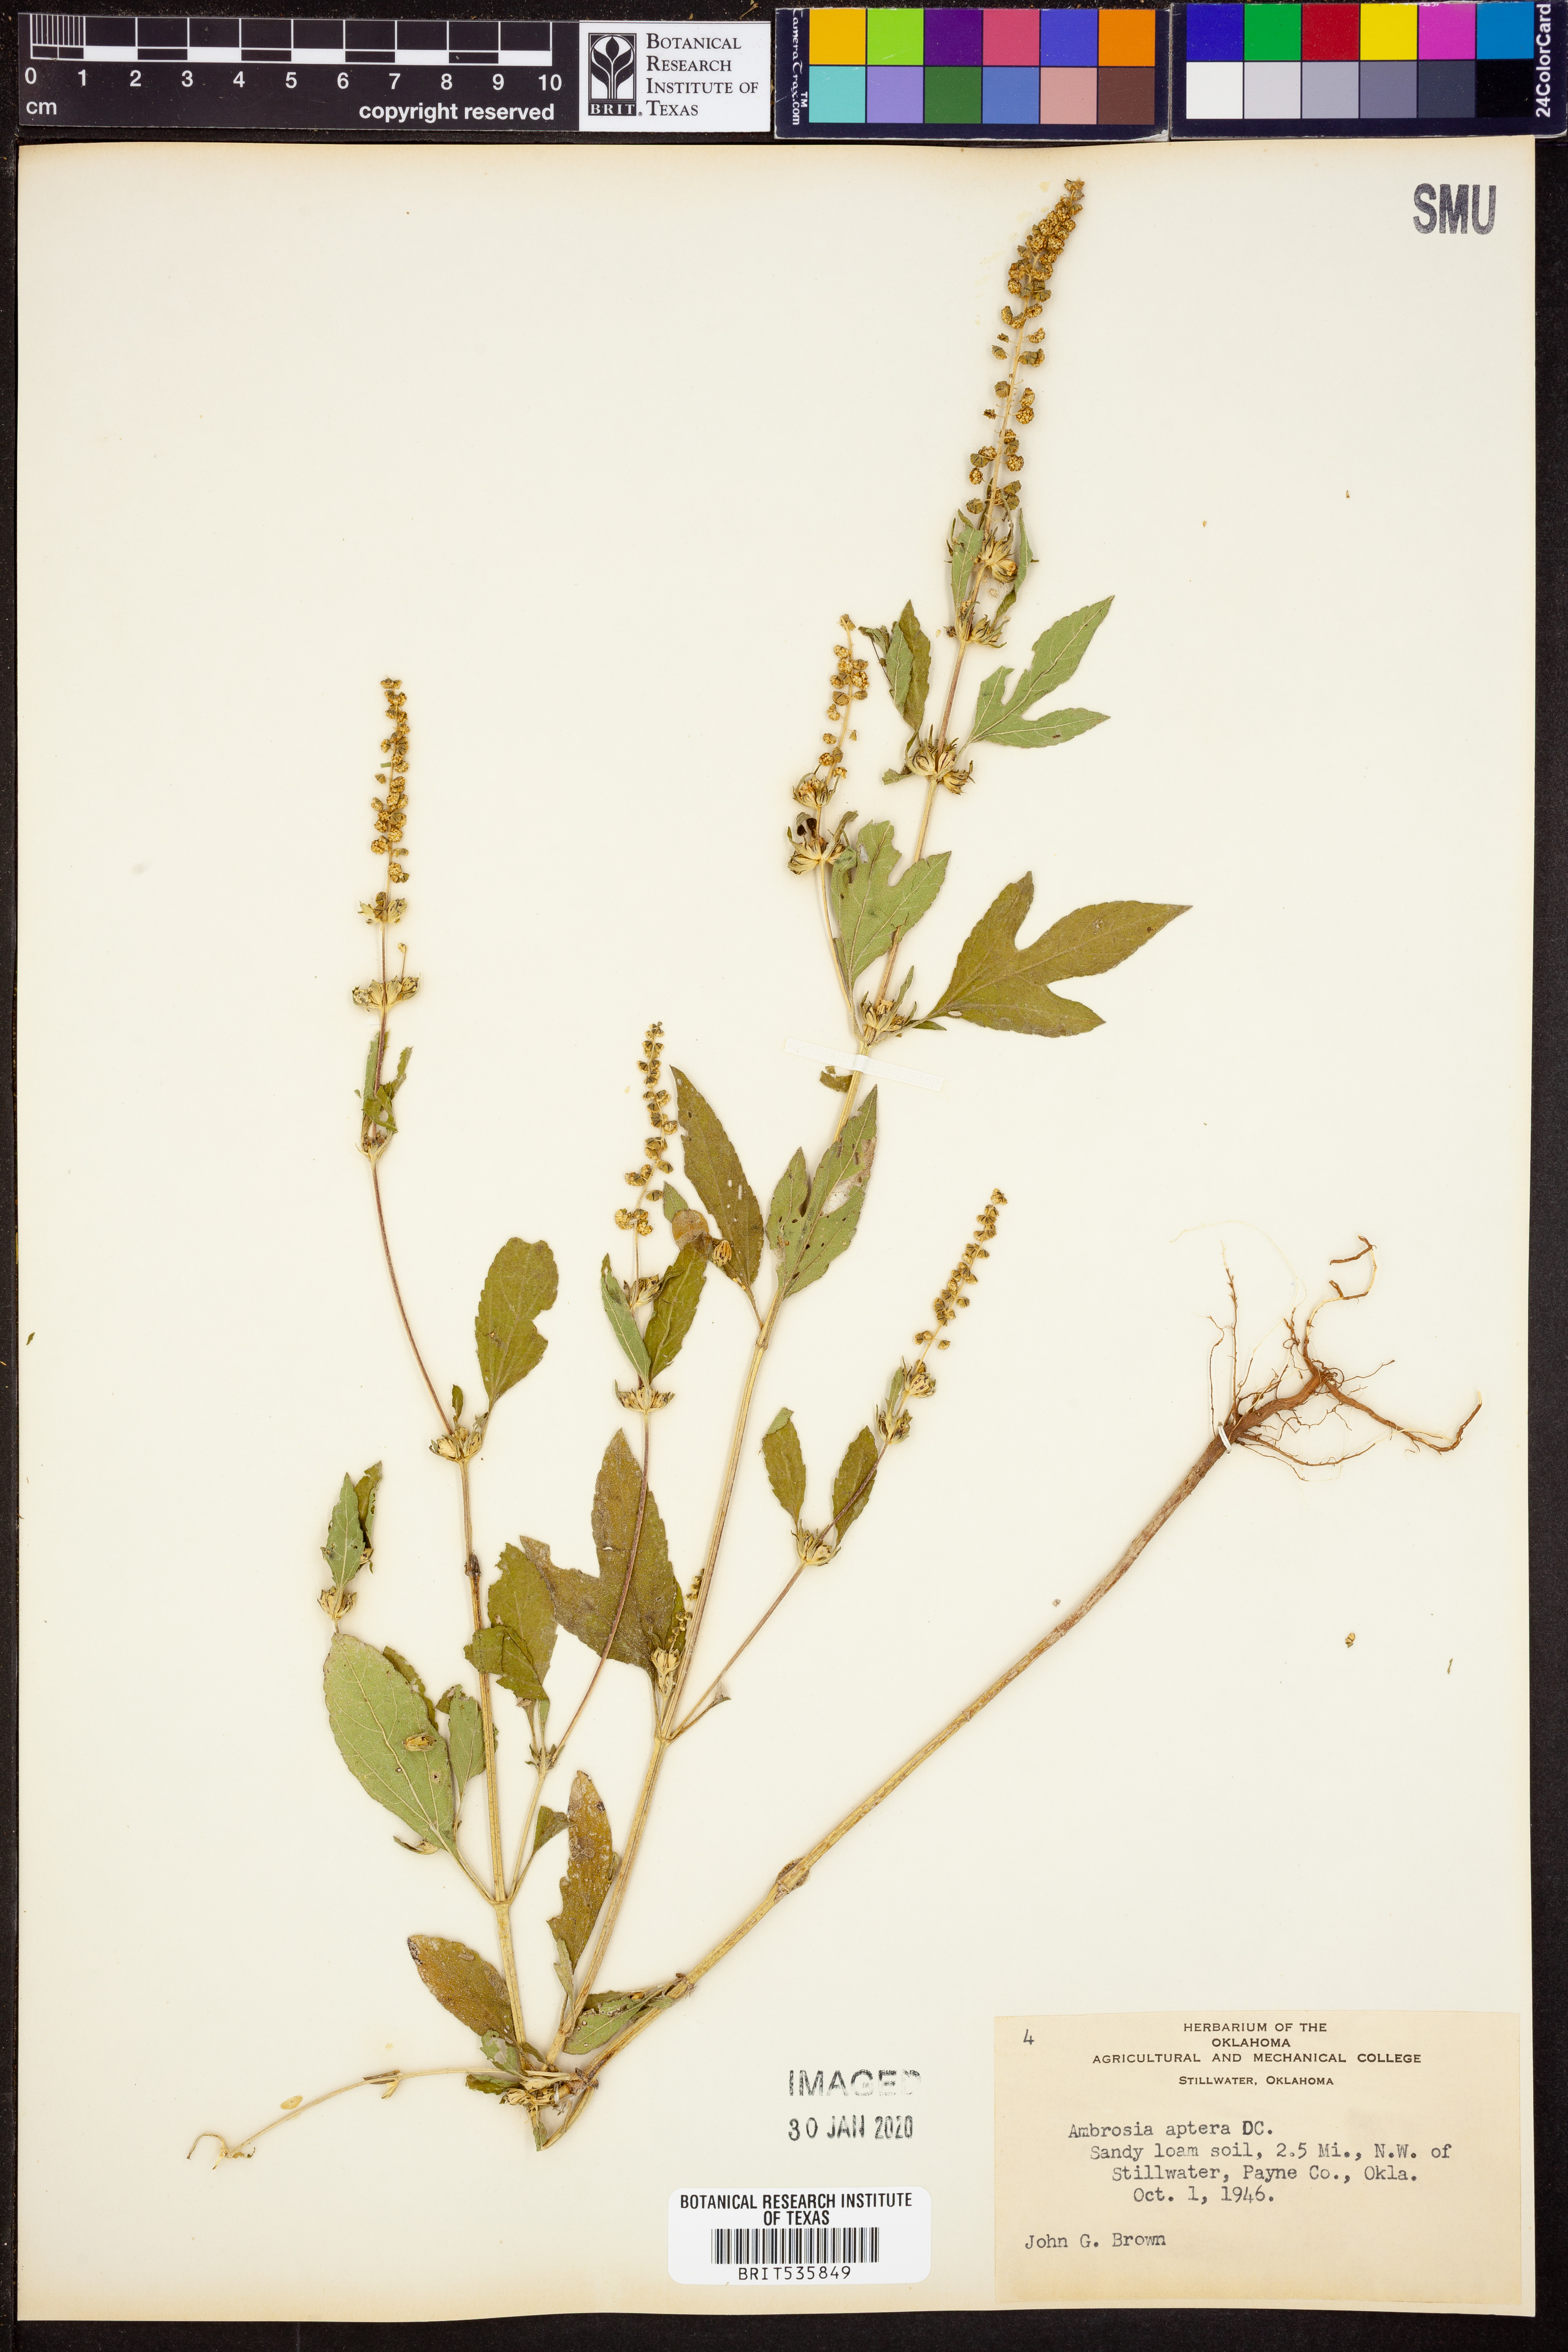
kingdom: Plantae
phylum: Tracheophyta
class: Magnoliopsida
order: Asterales
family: Asteraceae
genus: Ambrosia
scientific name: Ambrosia trifida
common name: Giant ragweed
